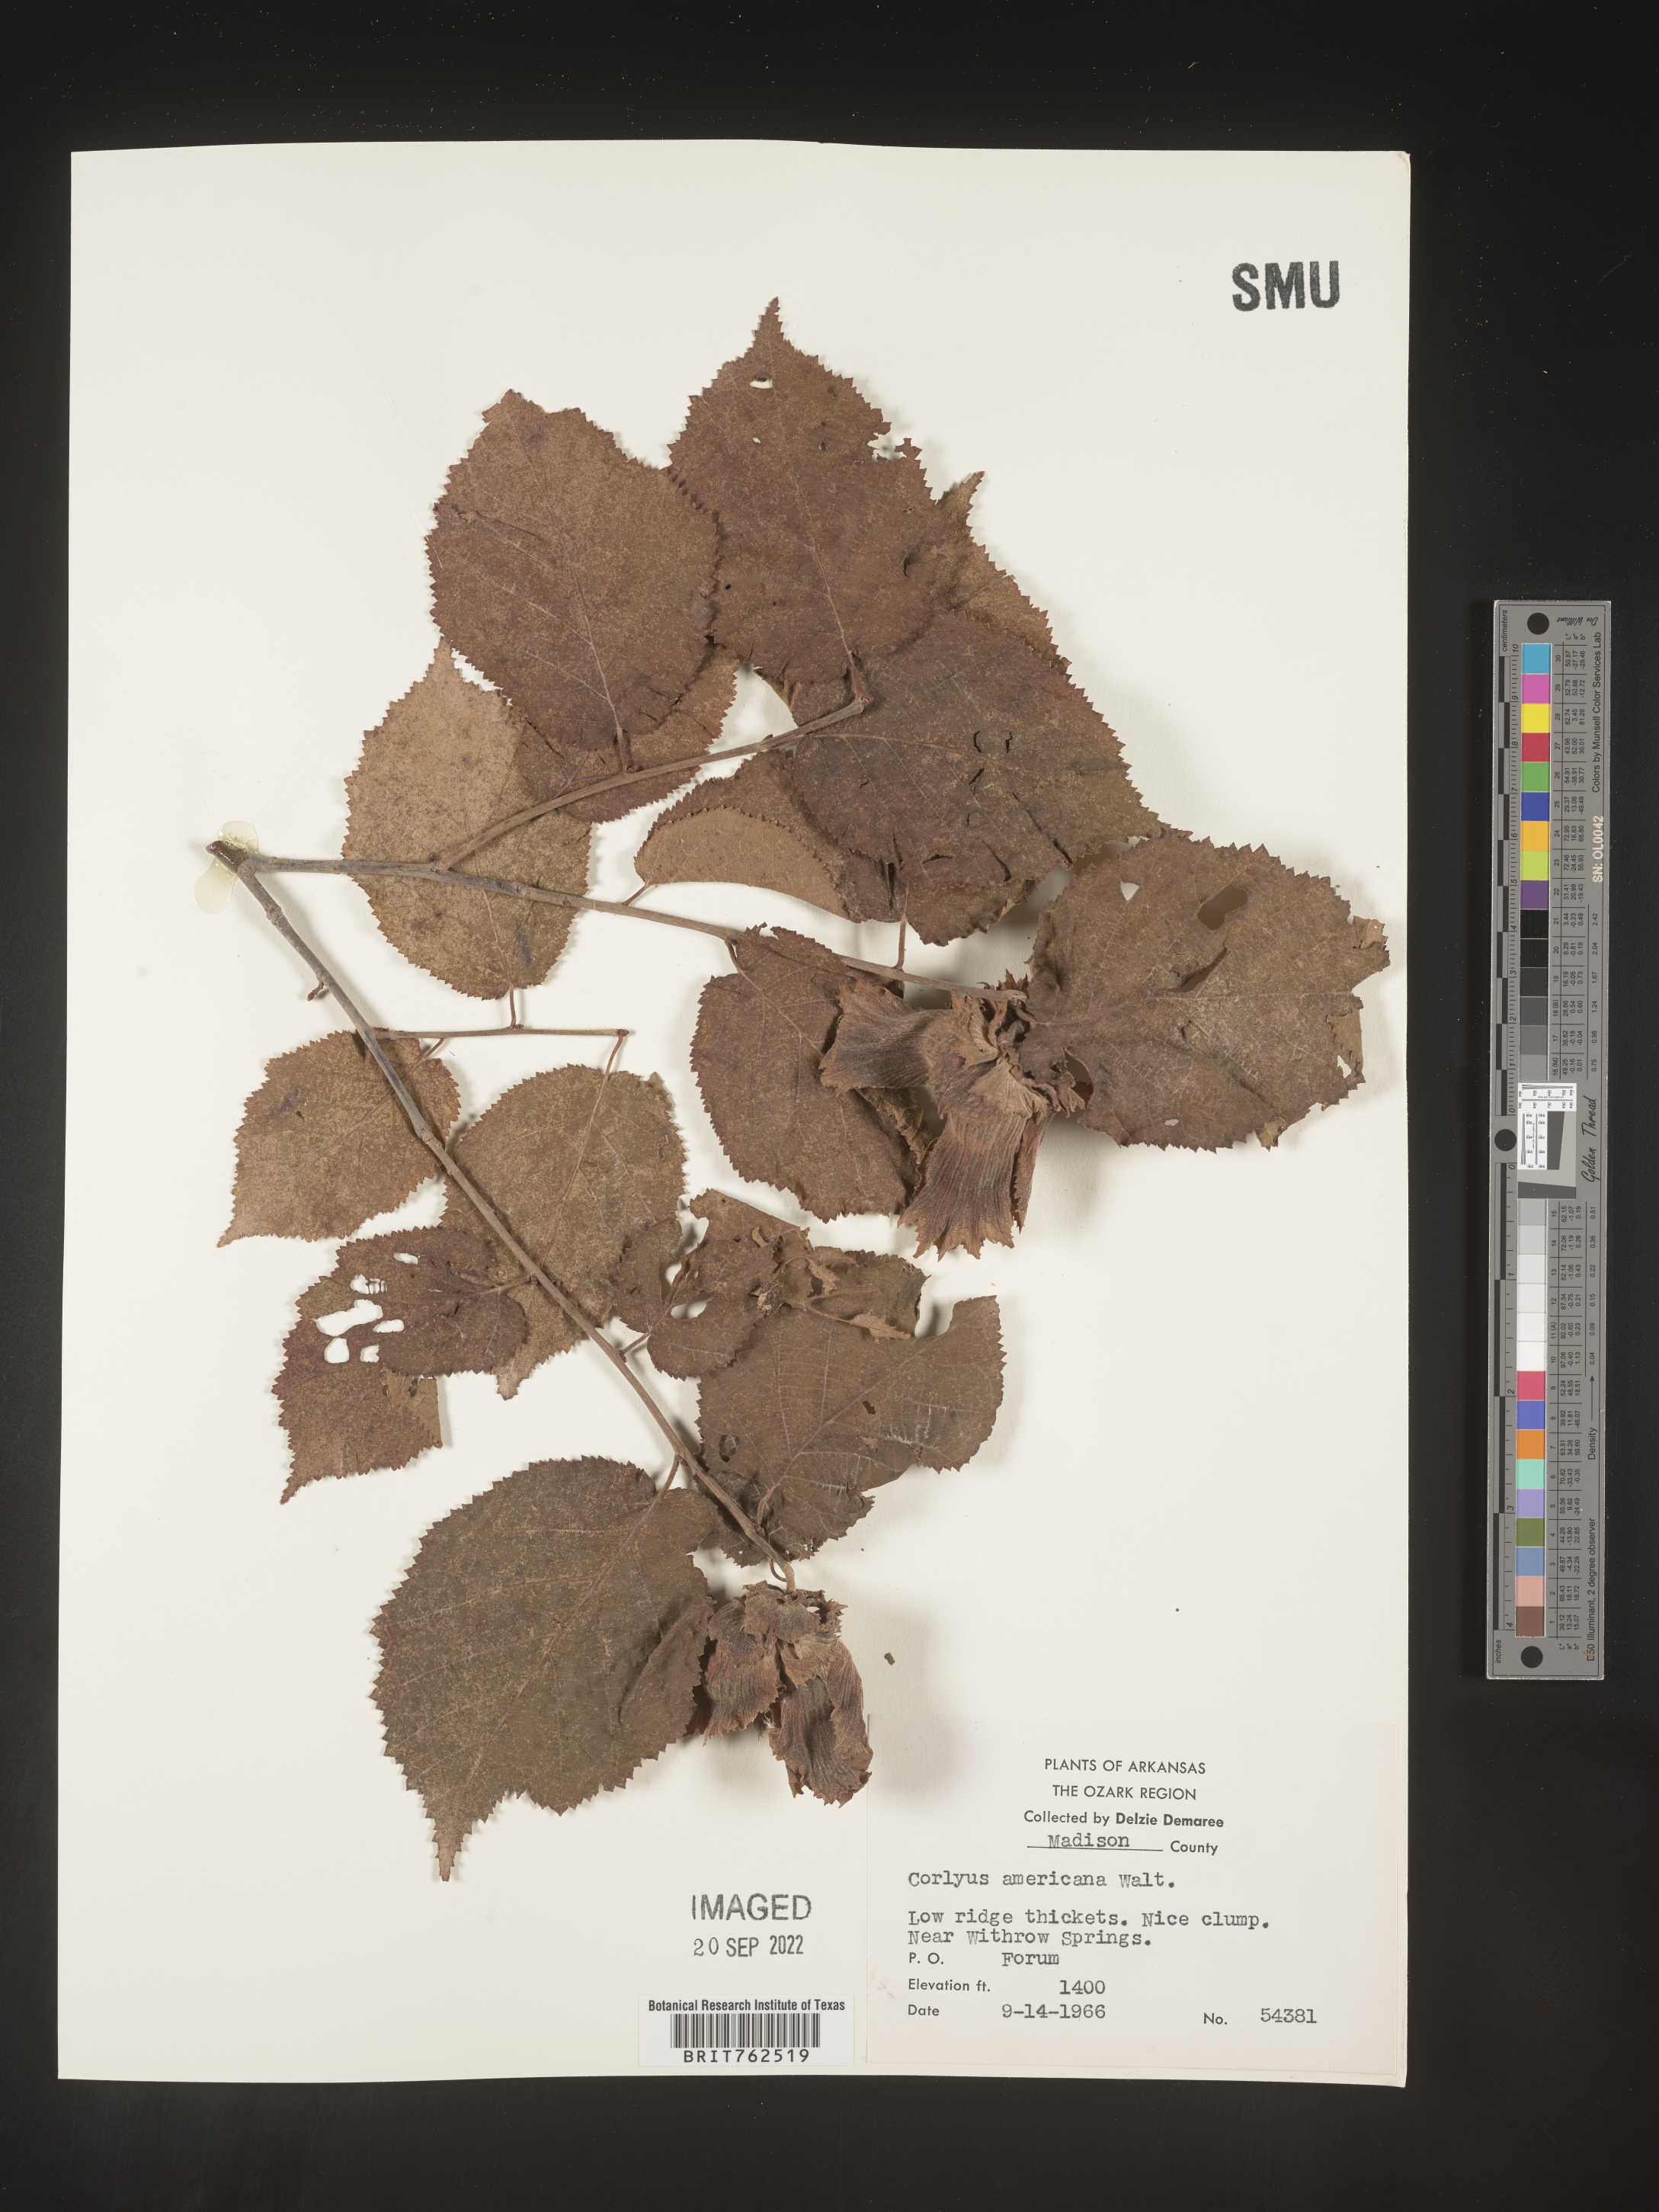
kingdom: Plantae
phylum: Tracheophyta
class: Magnoliopsida
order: Fagales
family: Betulaceae
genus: Corylus
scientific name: Corylus americana
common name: American hazel
